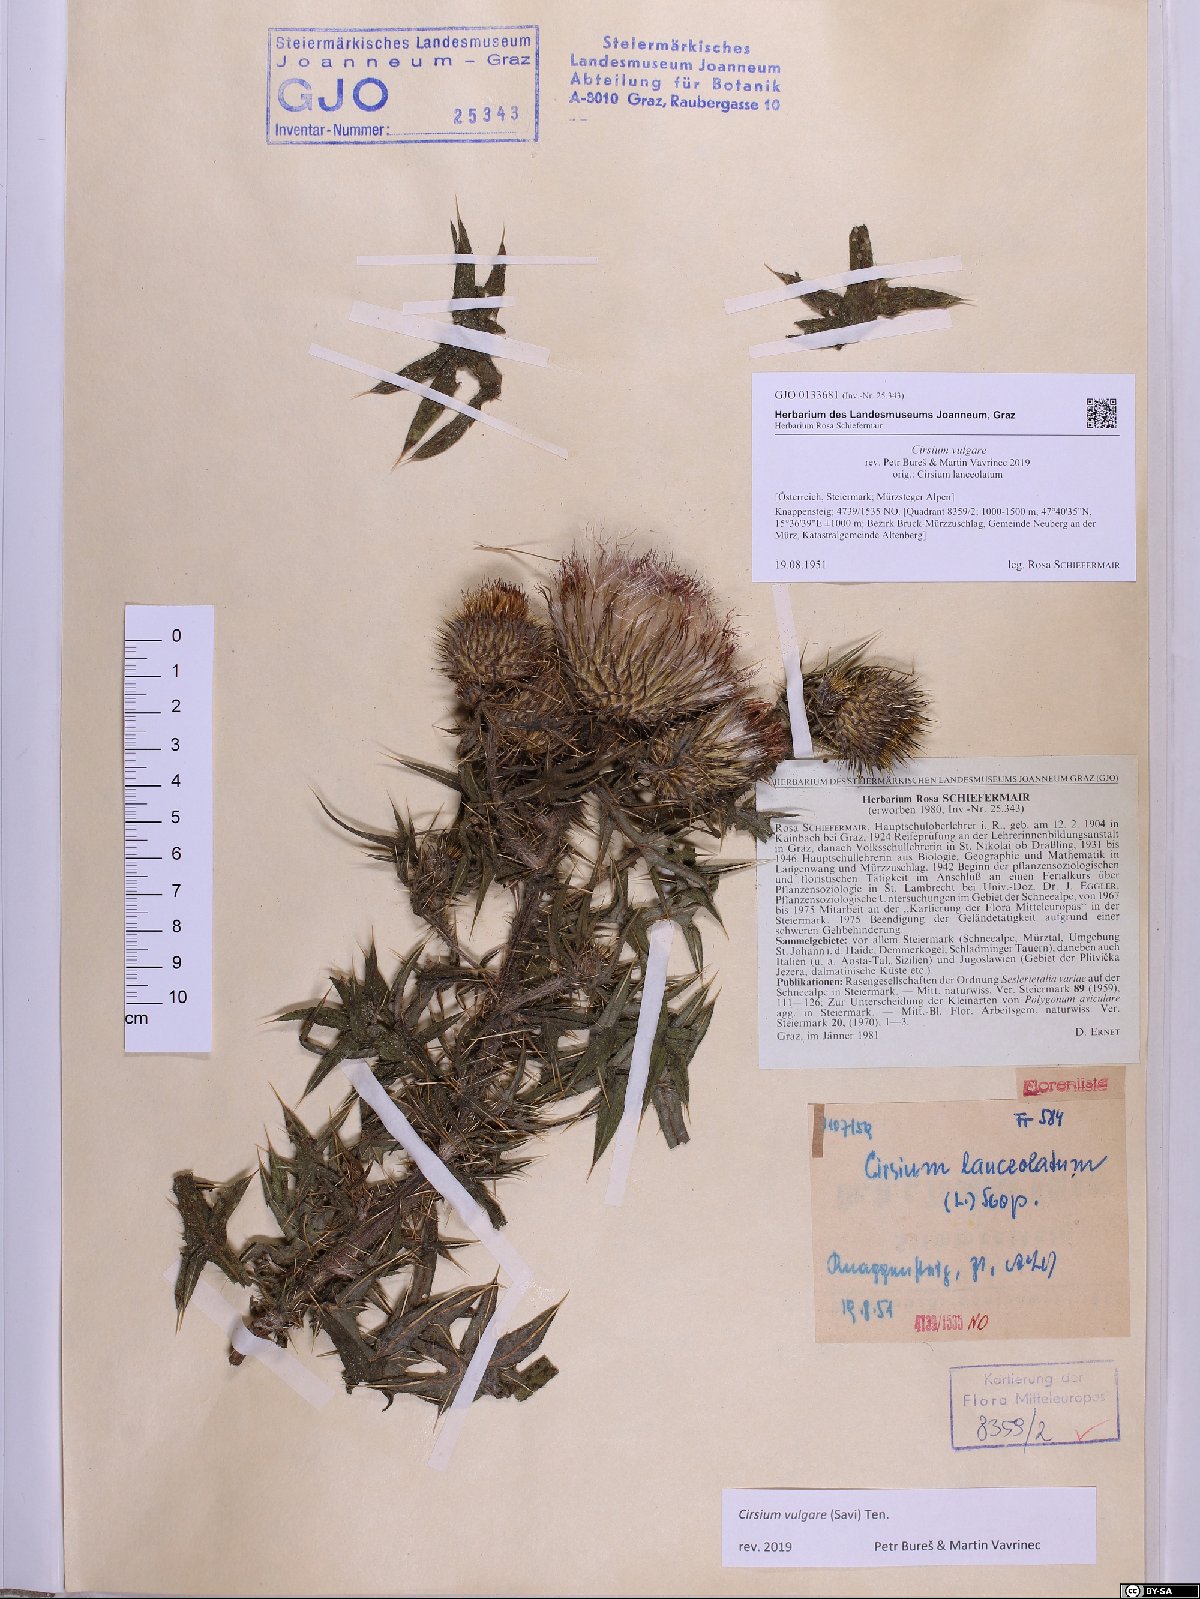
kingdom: Plantae
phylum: Tracheophyta
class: Magnoliopsida
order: Asterales
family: Asteraceae
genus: Cirsium
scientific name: Cirsium vulgare
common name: Bull thistle
